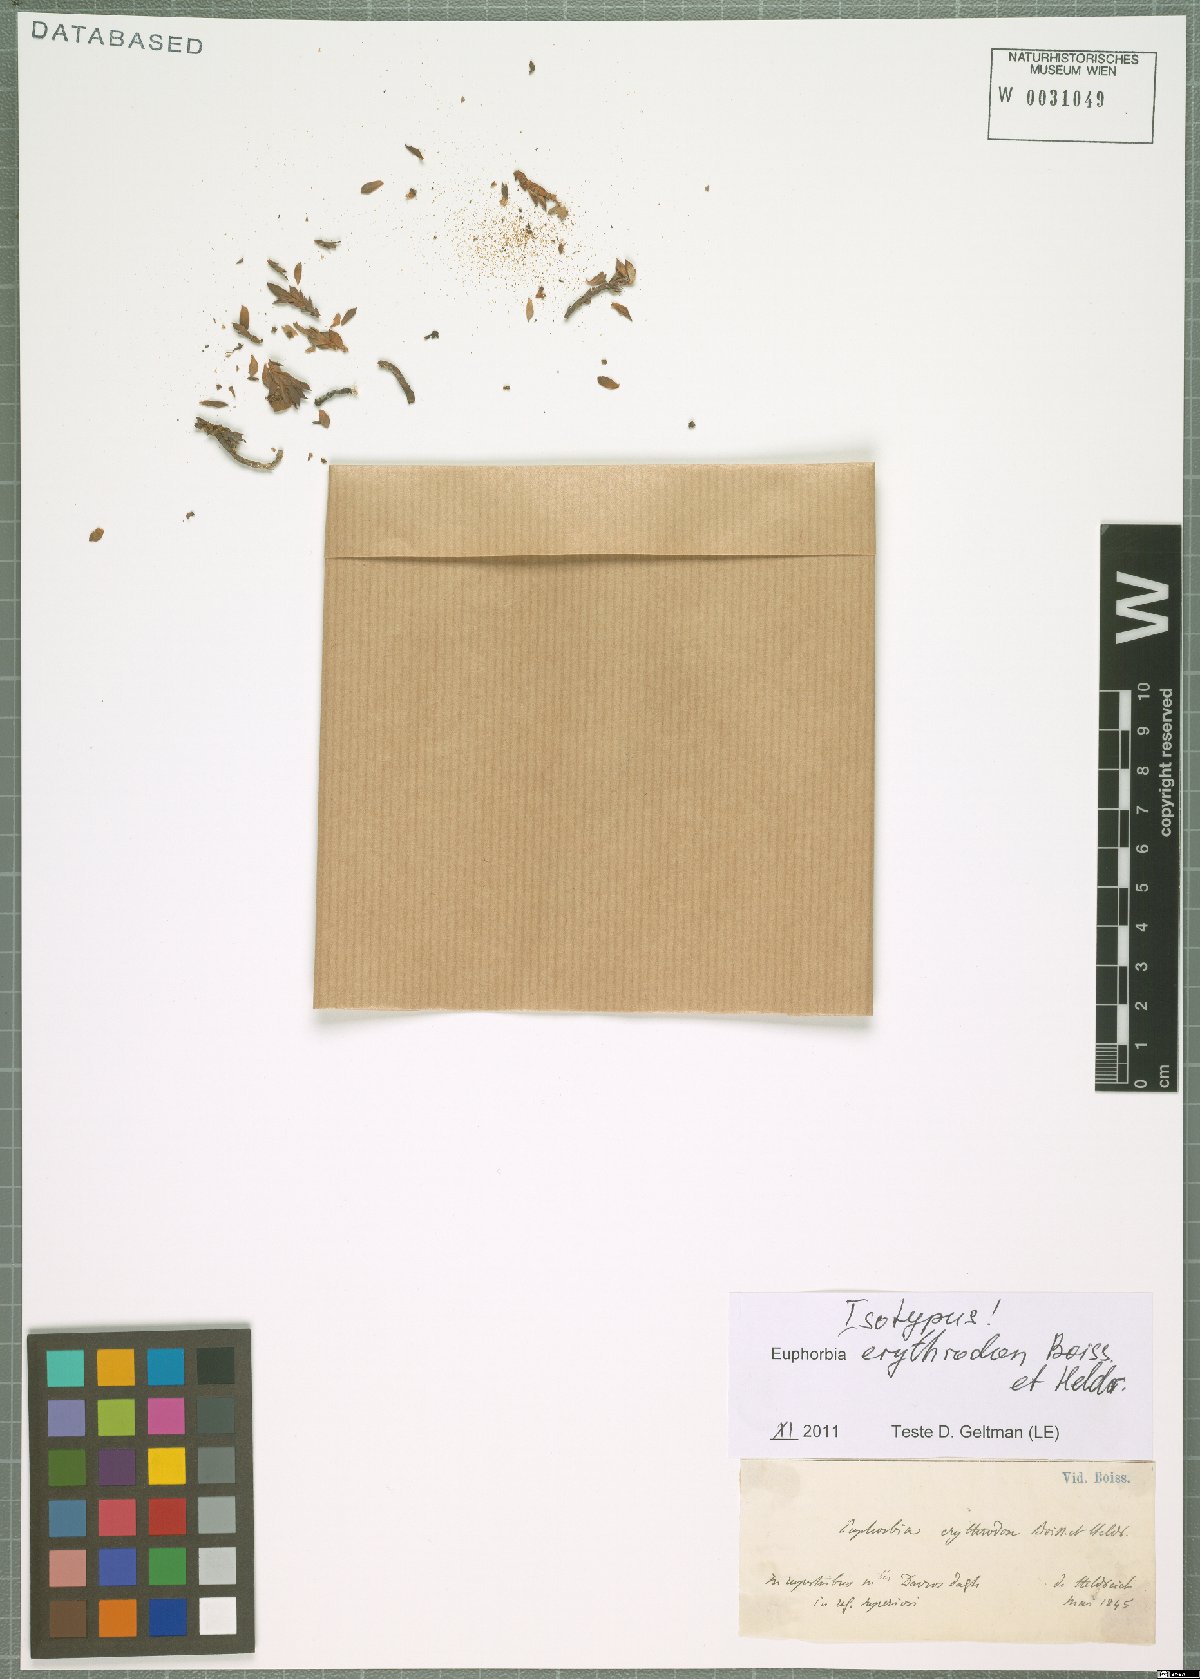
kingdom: Plantae
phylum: Tracheophyta
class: Magnoliopsida
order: Malpighiales
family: Euphorbiaceae
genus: Euphorbia
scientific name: Euphorbia erythrodon
